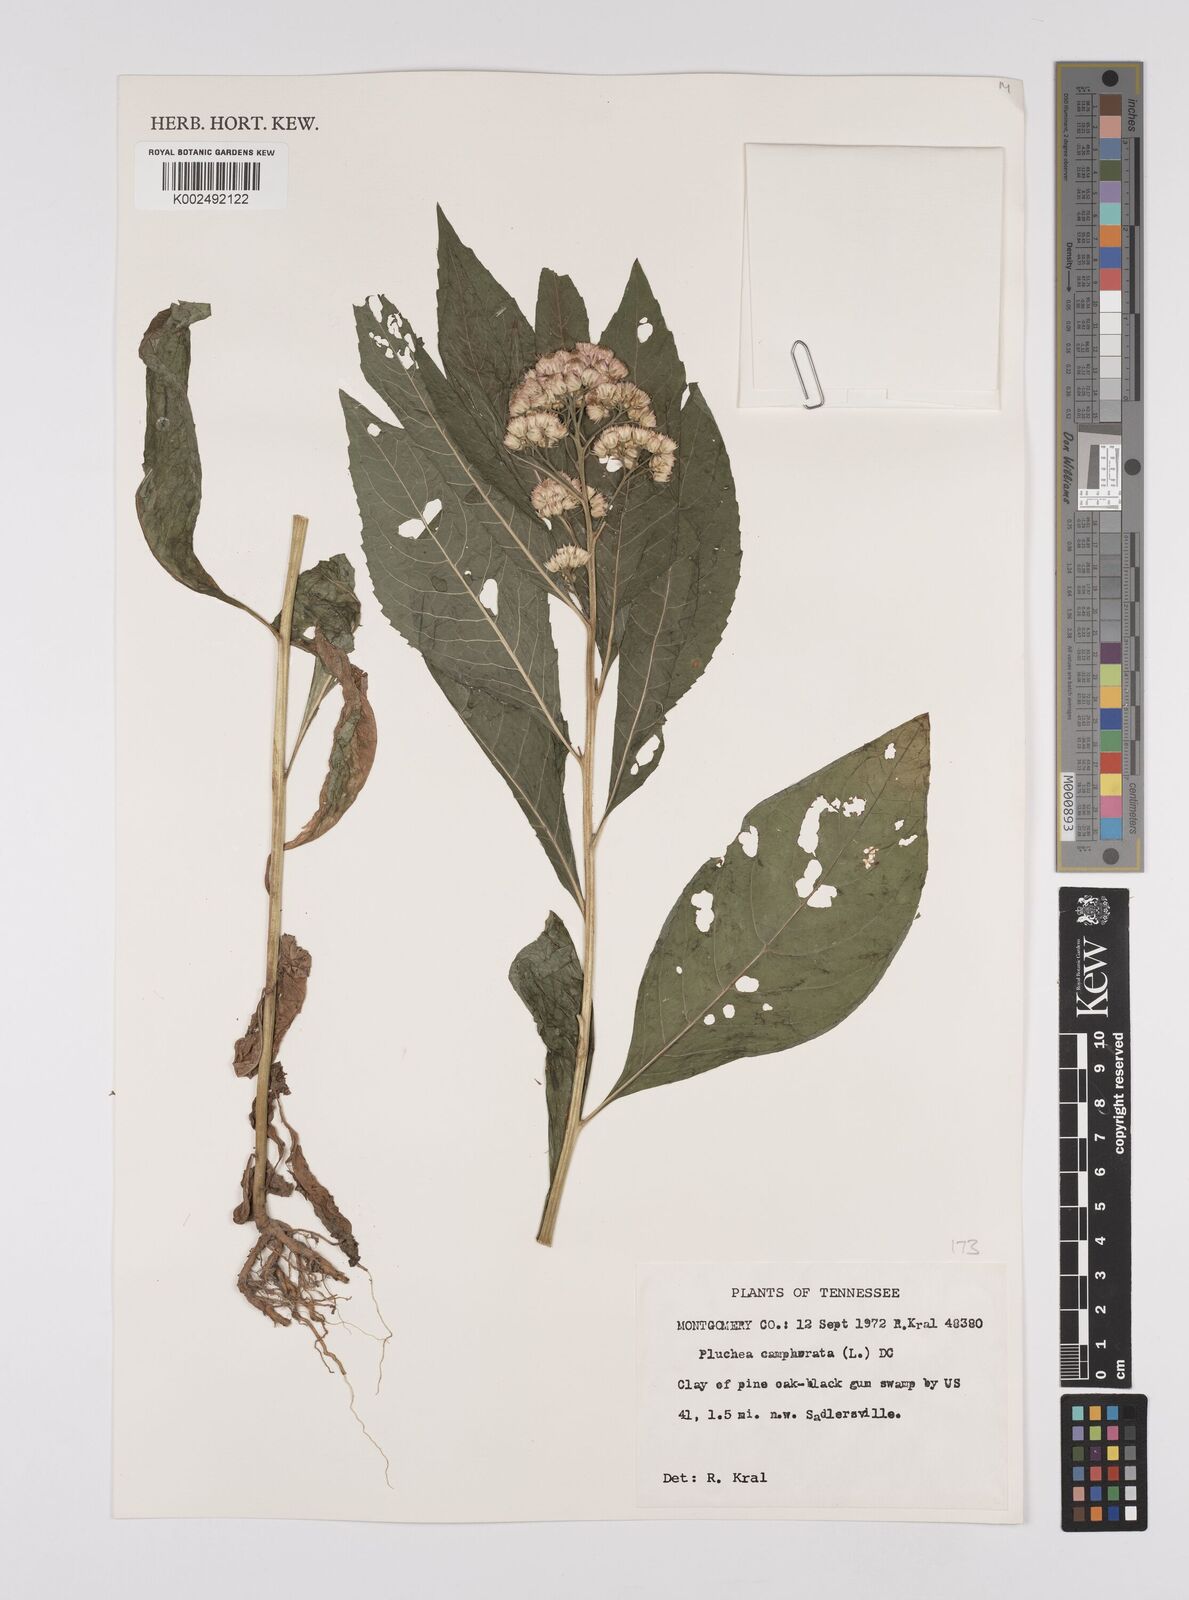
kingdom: Plantae
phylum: Tracheophyta
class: Magnoliopsida
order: Asterales
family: Asteraceae
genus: Pluchea
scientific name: Pluchea camphorata
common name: Camphor pluchea
